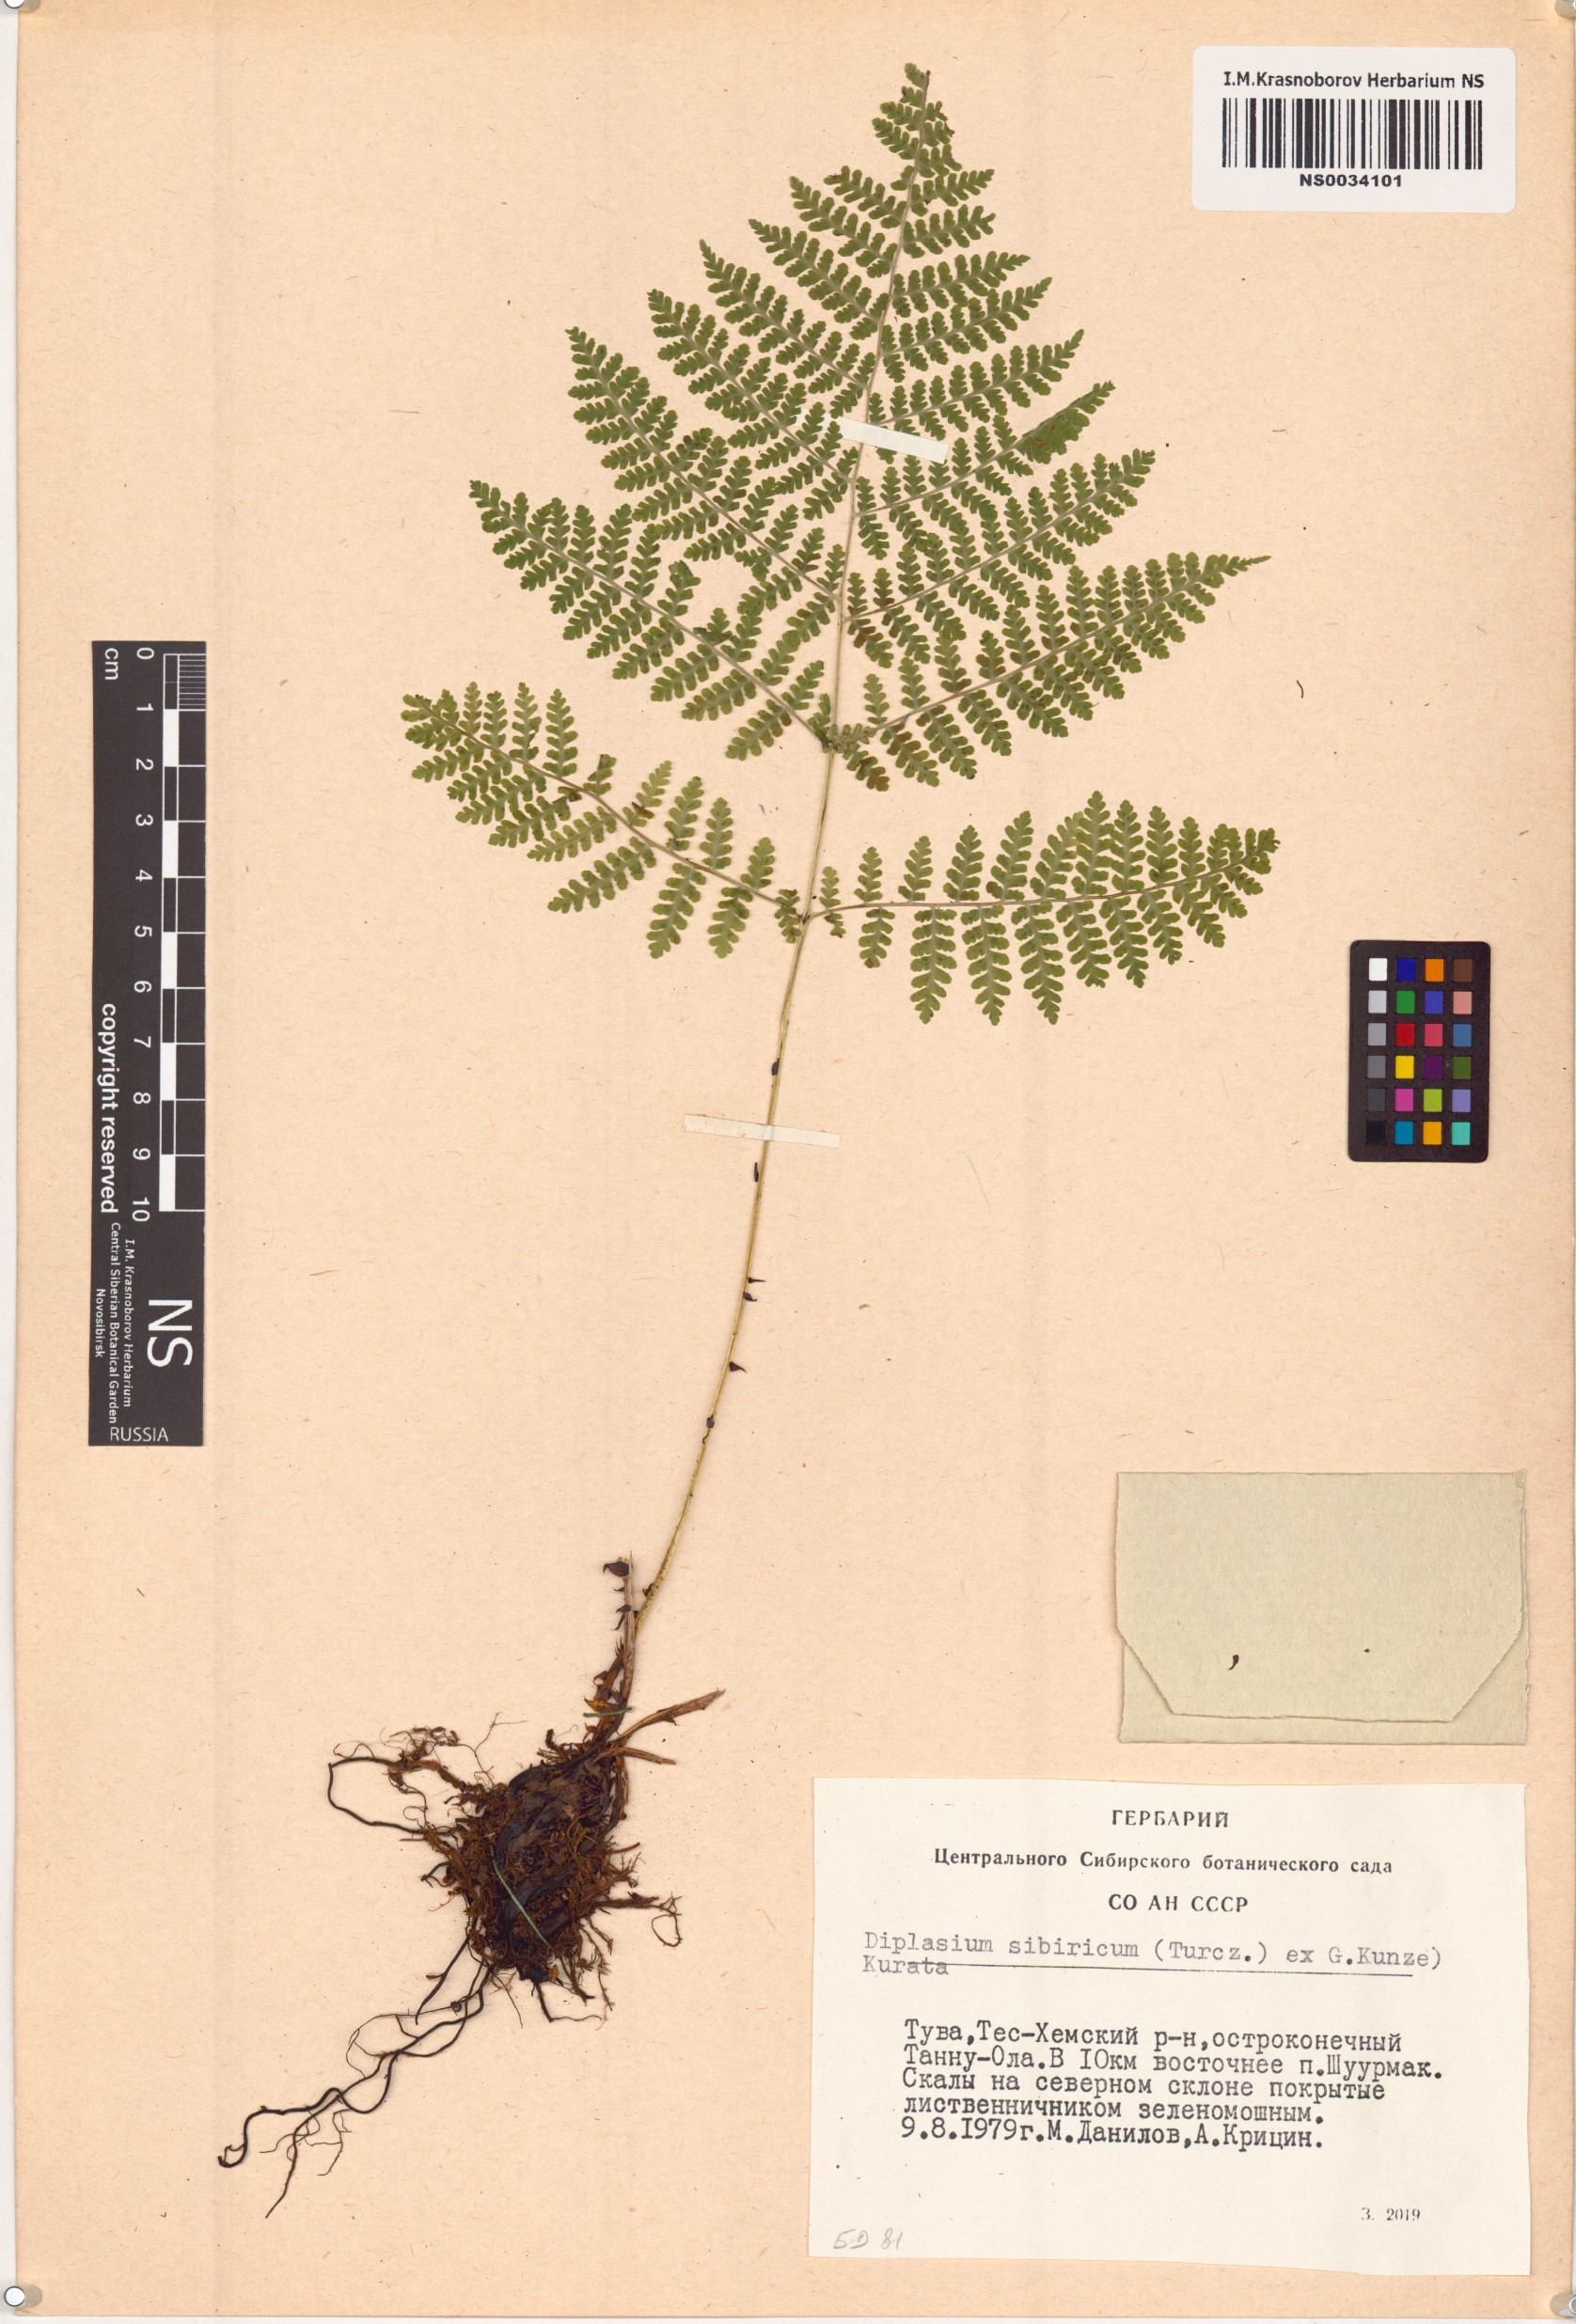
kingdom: Plantae
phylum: Tracheophyta
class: Polypodiopsida
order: Polypodiales
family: Athyriaceae
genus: Diplazium
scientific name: Diplazium sibiricum
